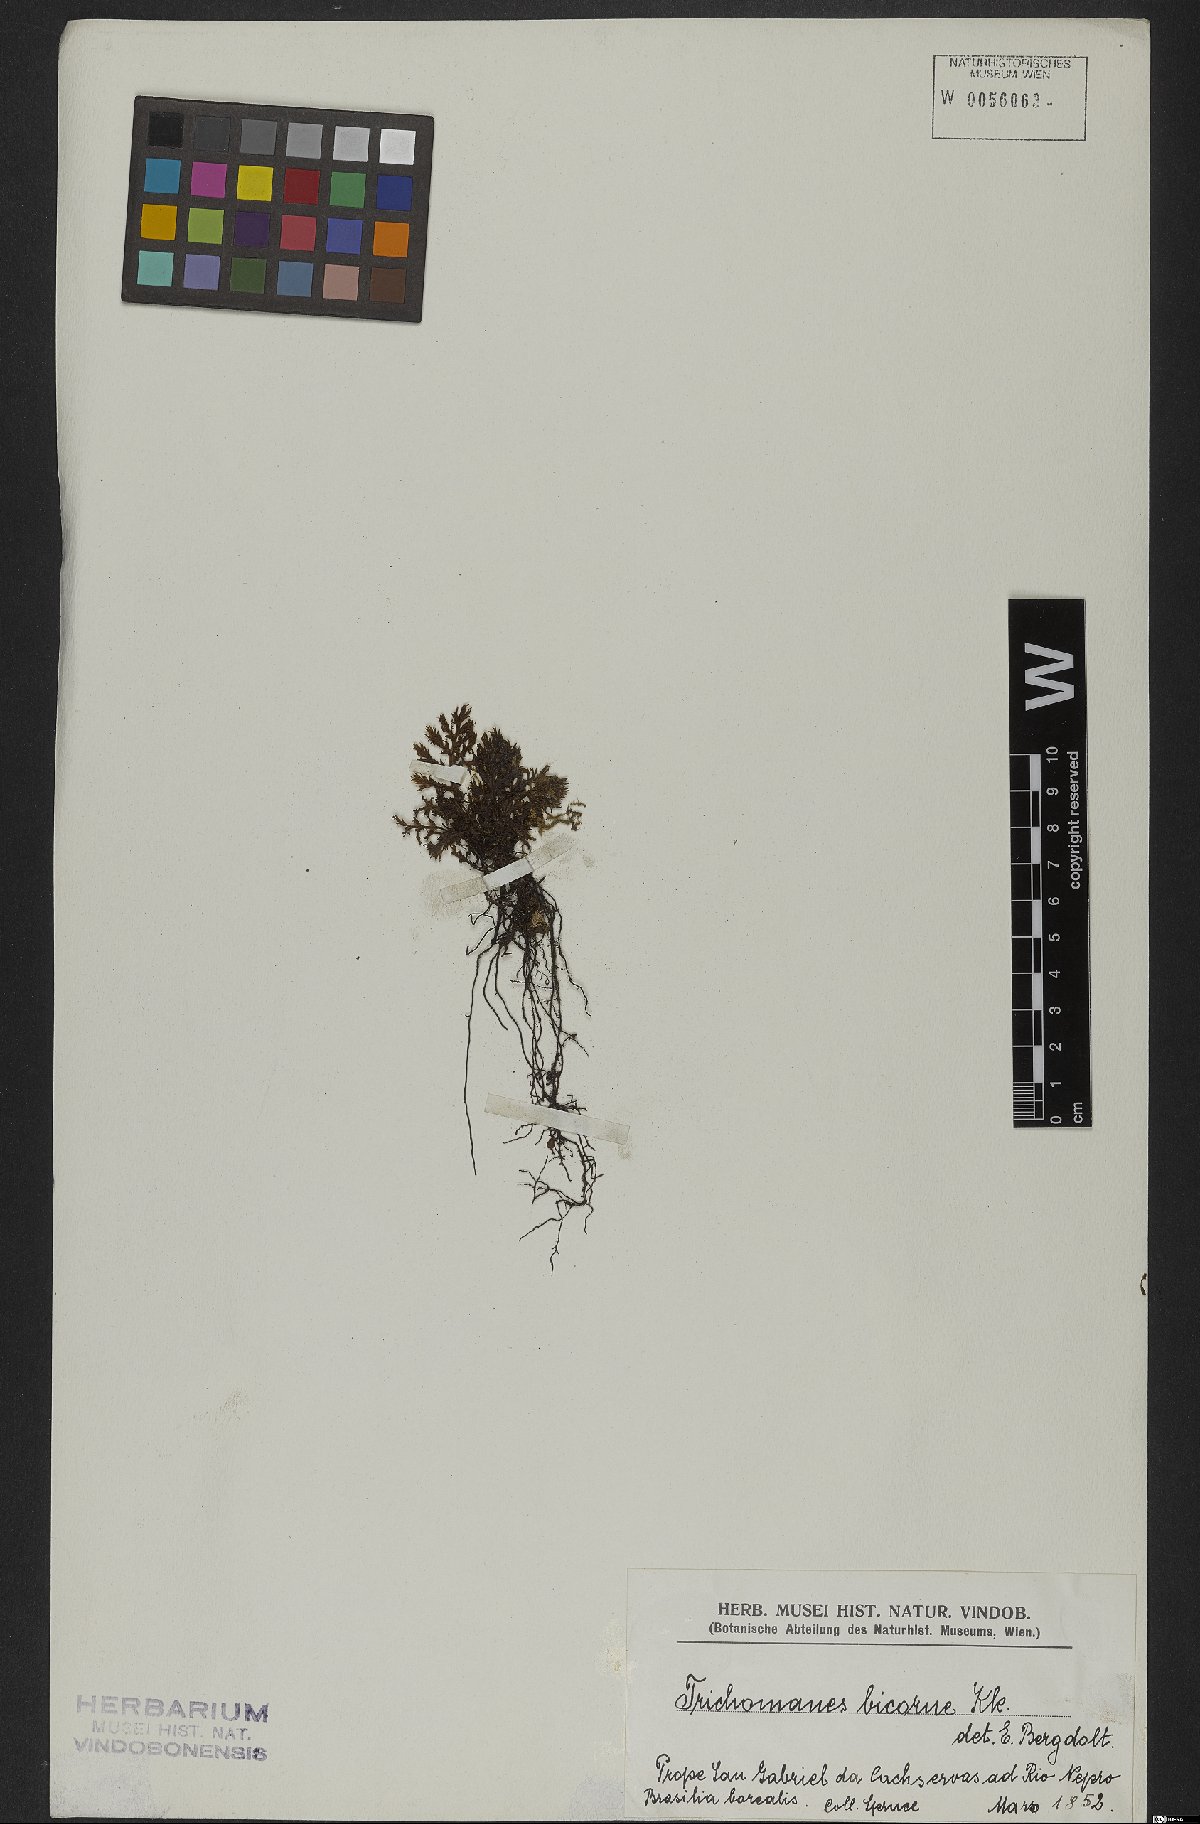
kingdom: Plantae
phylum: Tracheophyta
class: Polypodiopsida
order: Hymenophyllales
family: Hymenophyllaceae
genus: Trichomanes
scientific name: Trichomanes bicorne
